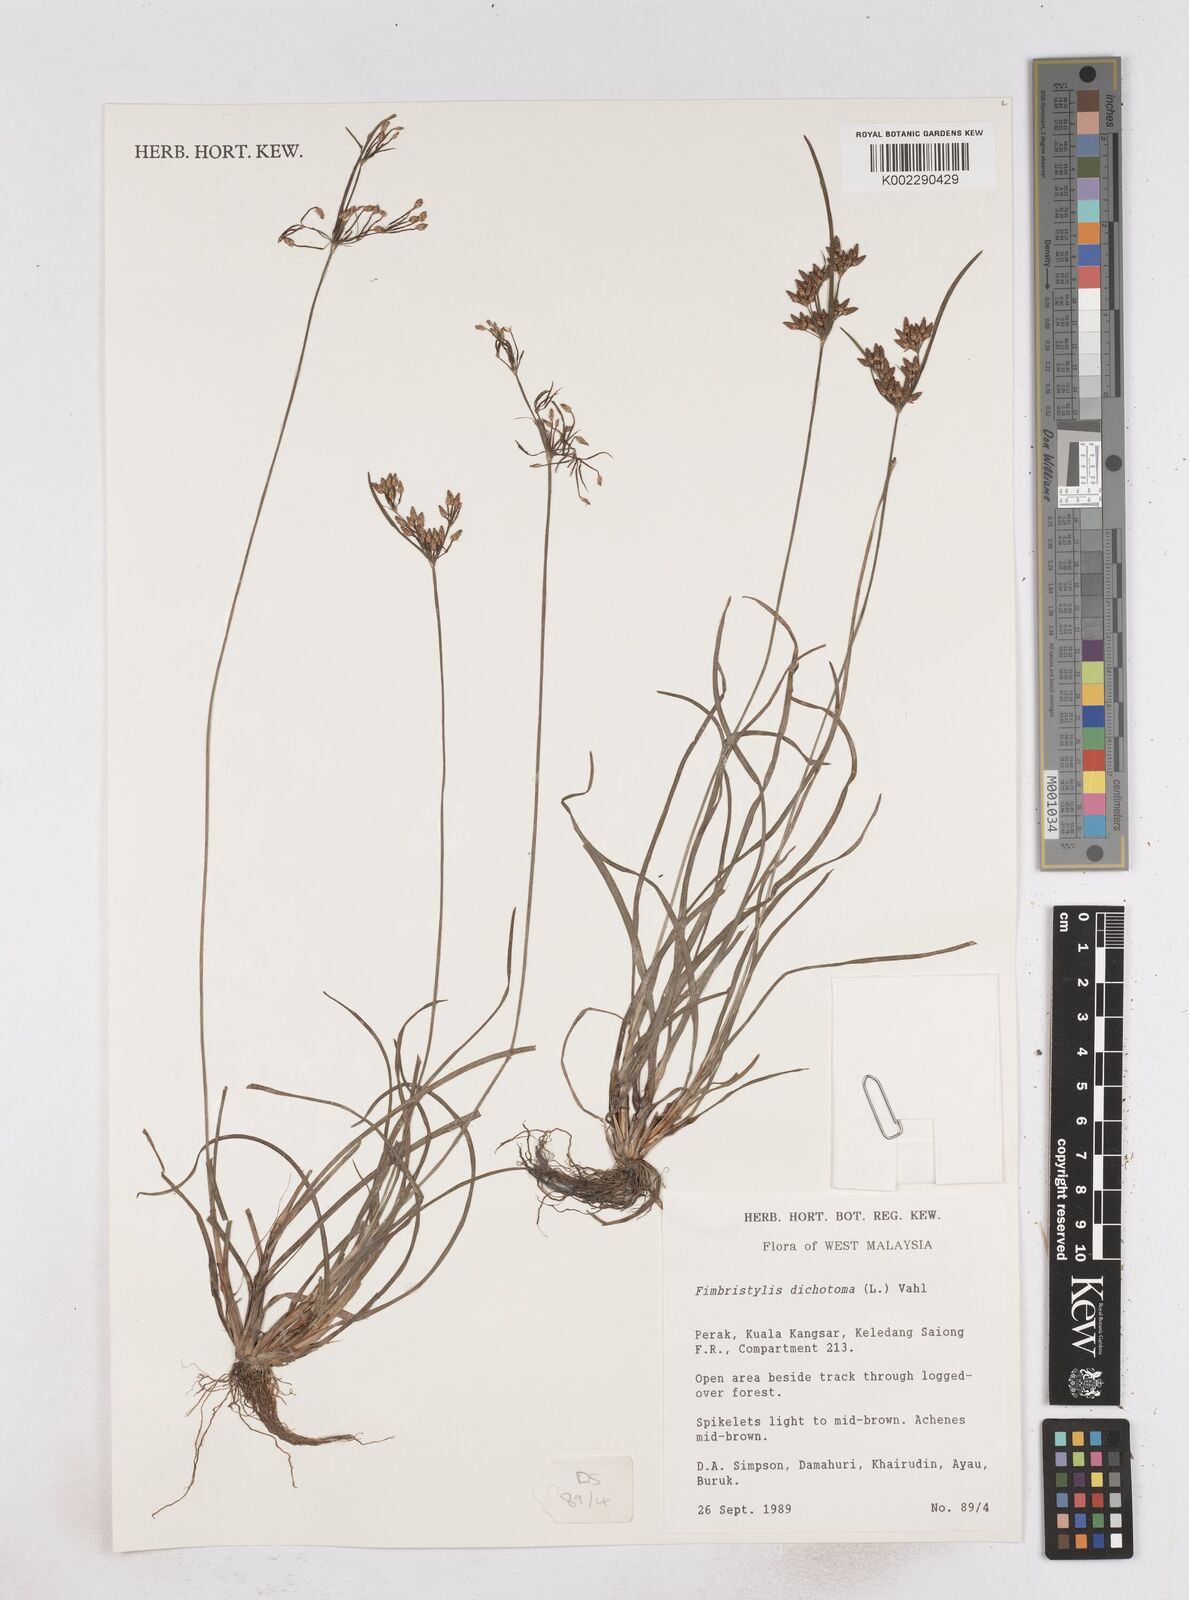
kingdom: Plantae
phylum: Tracheophyta
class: Liliopsida
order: Poales
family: Cyperaceae
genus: Fimbristylis
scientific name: Fimbristylis dichotoma
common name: Forked fimbry
